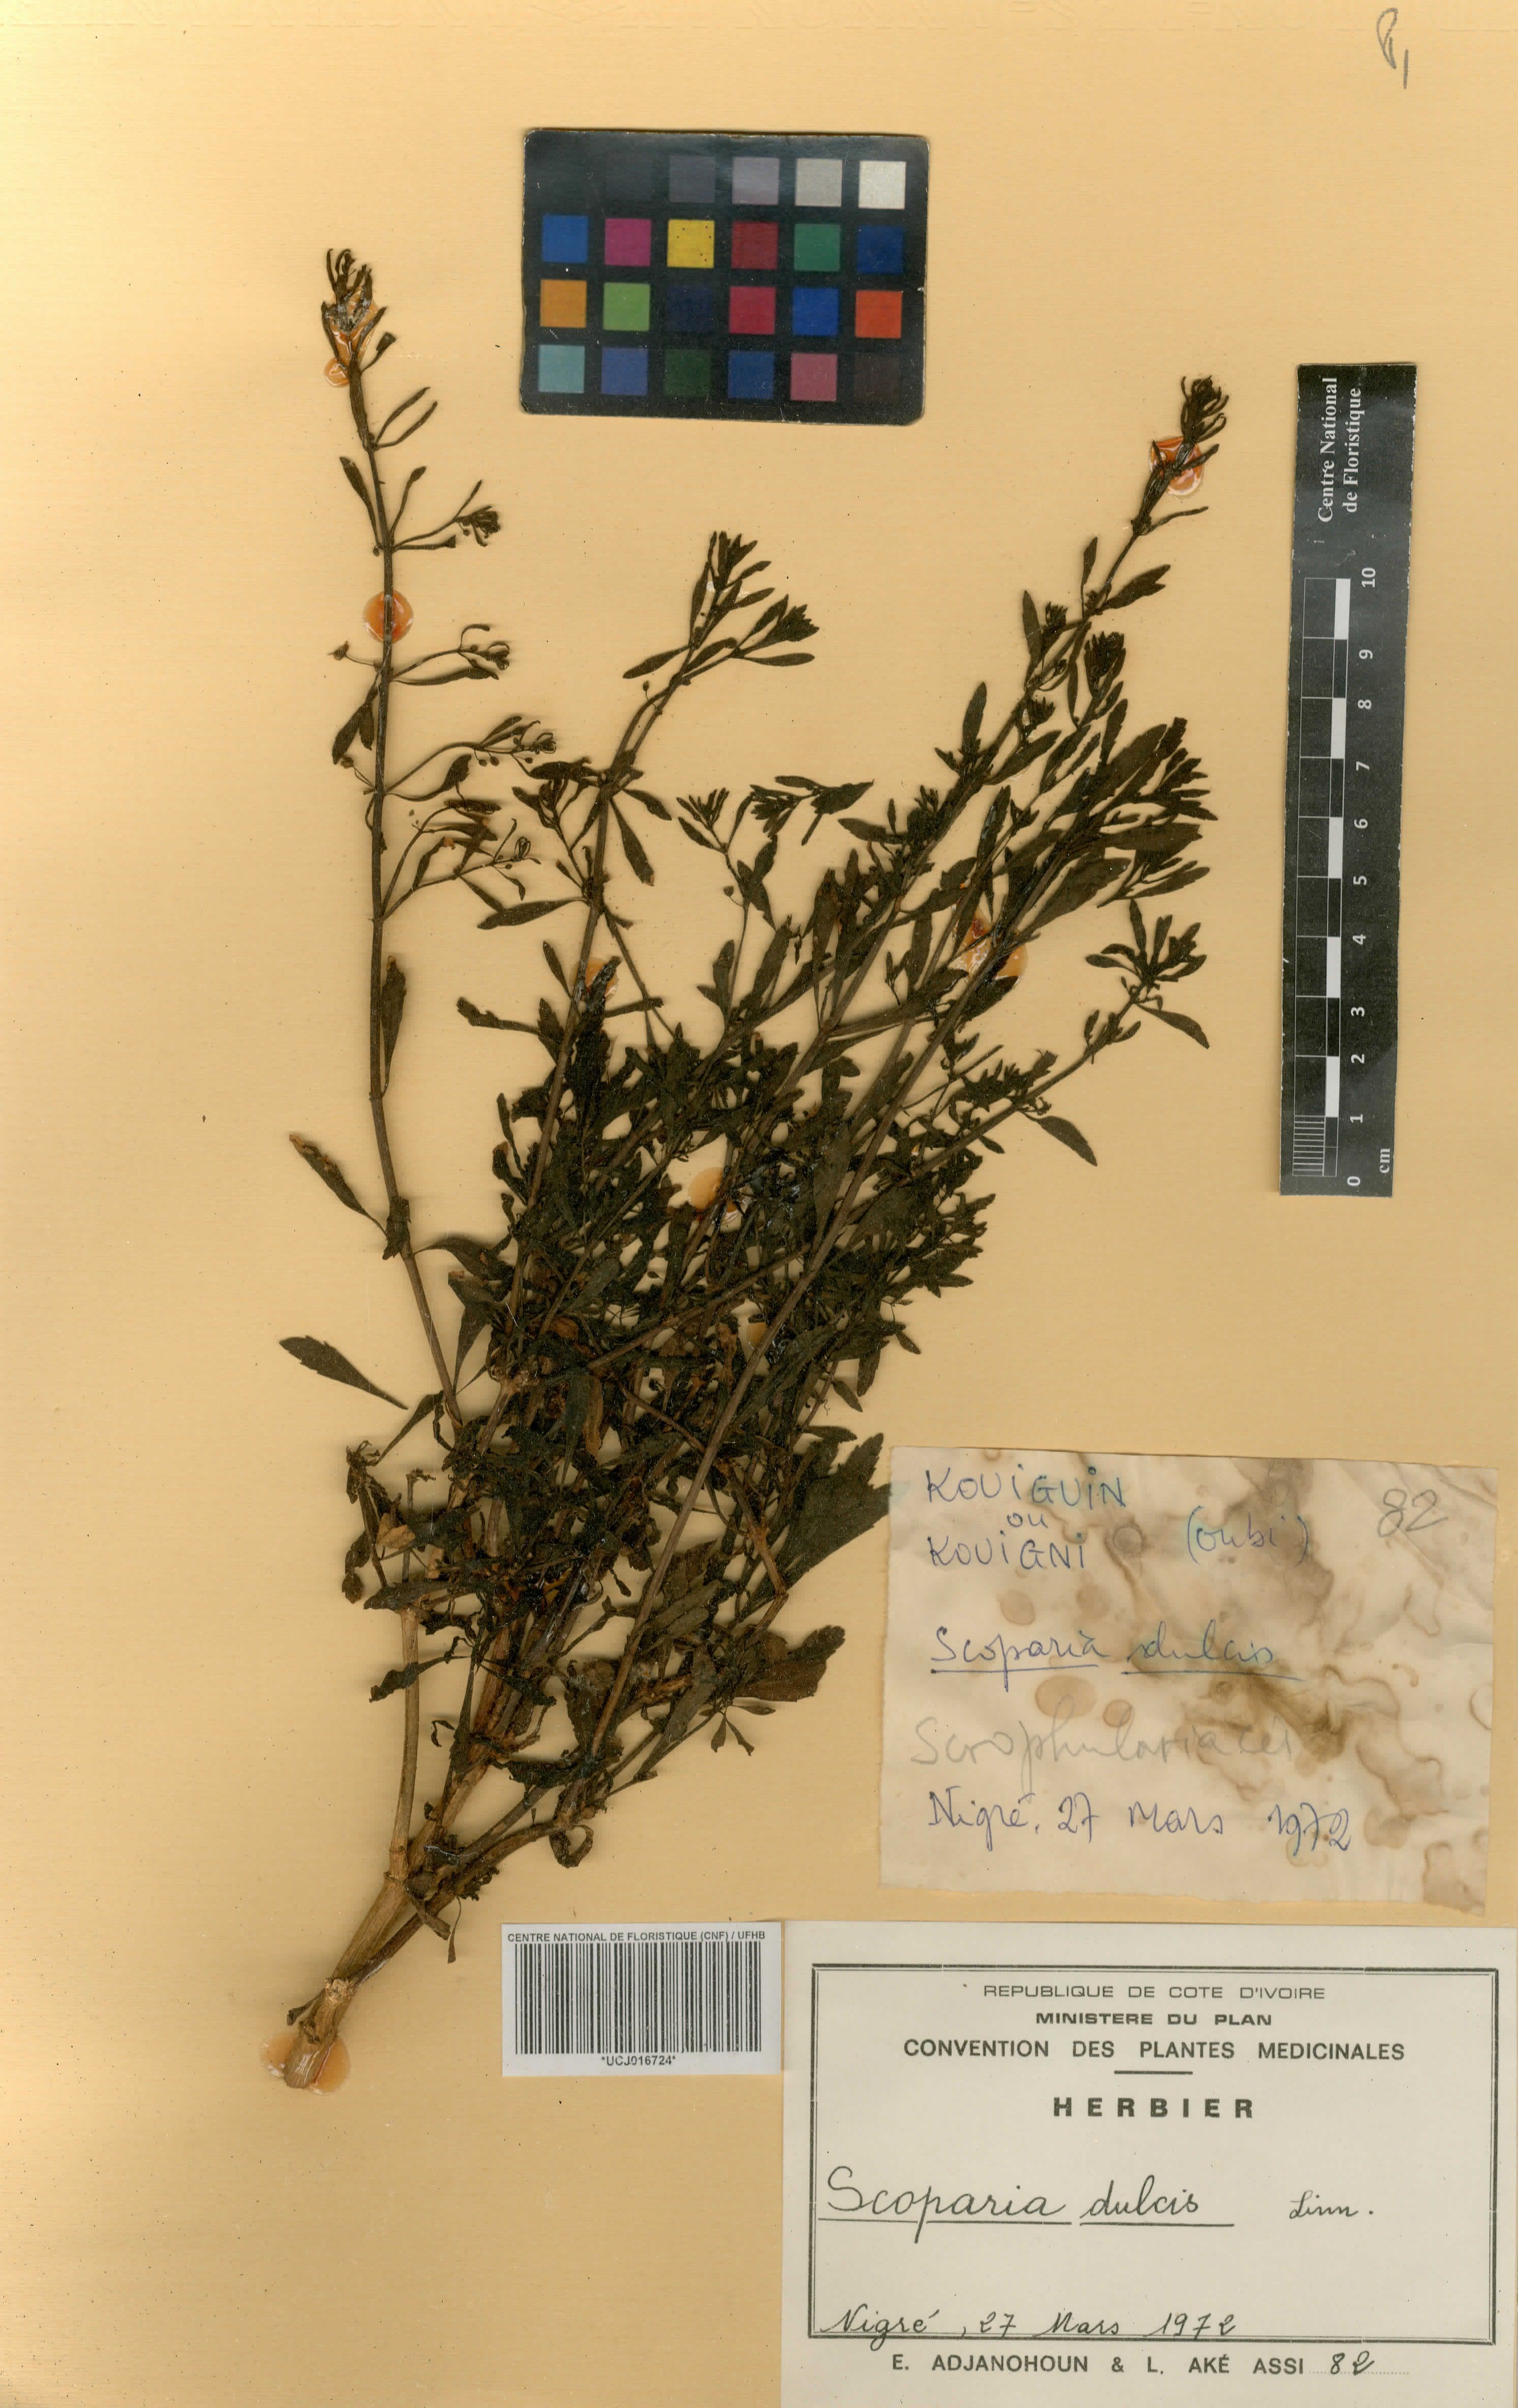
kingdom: Plantae
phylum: Tracheophyta
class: Magnoliopsida
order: Lamiales
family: Plantaginaceae
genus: Scoparia
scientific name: Scoparia dulcis
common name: Scoparia-weed
